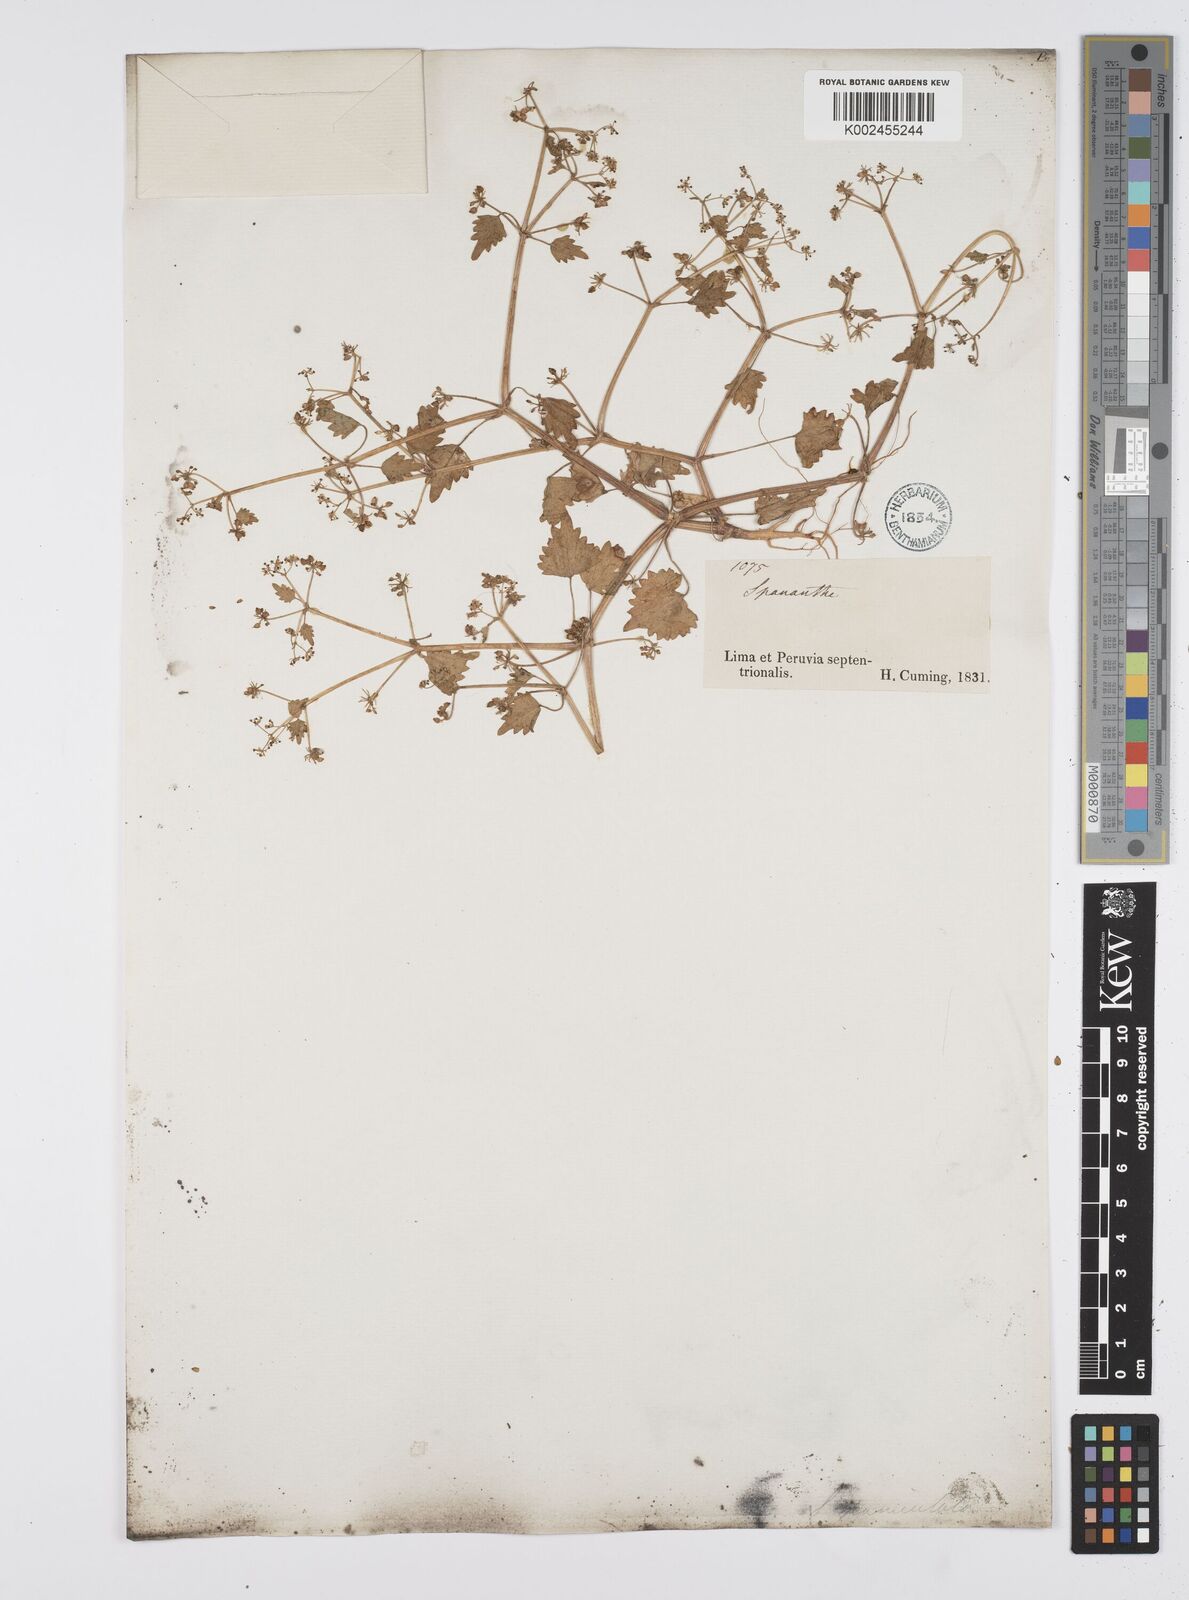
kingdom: Plantae
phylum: Tracheophyta
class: Magnoliopsida
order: Apiales
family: Apiaceae
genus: Azorella
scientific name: Azorella
